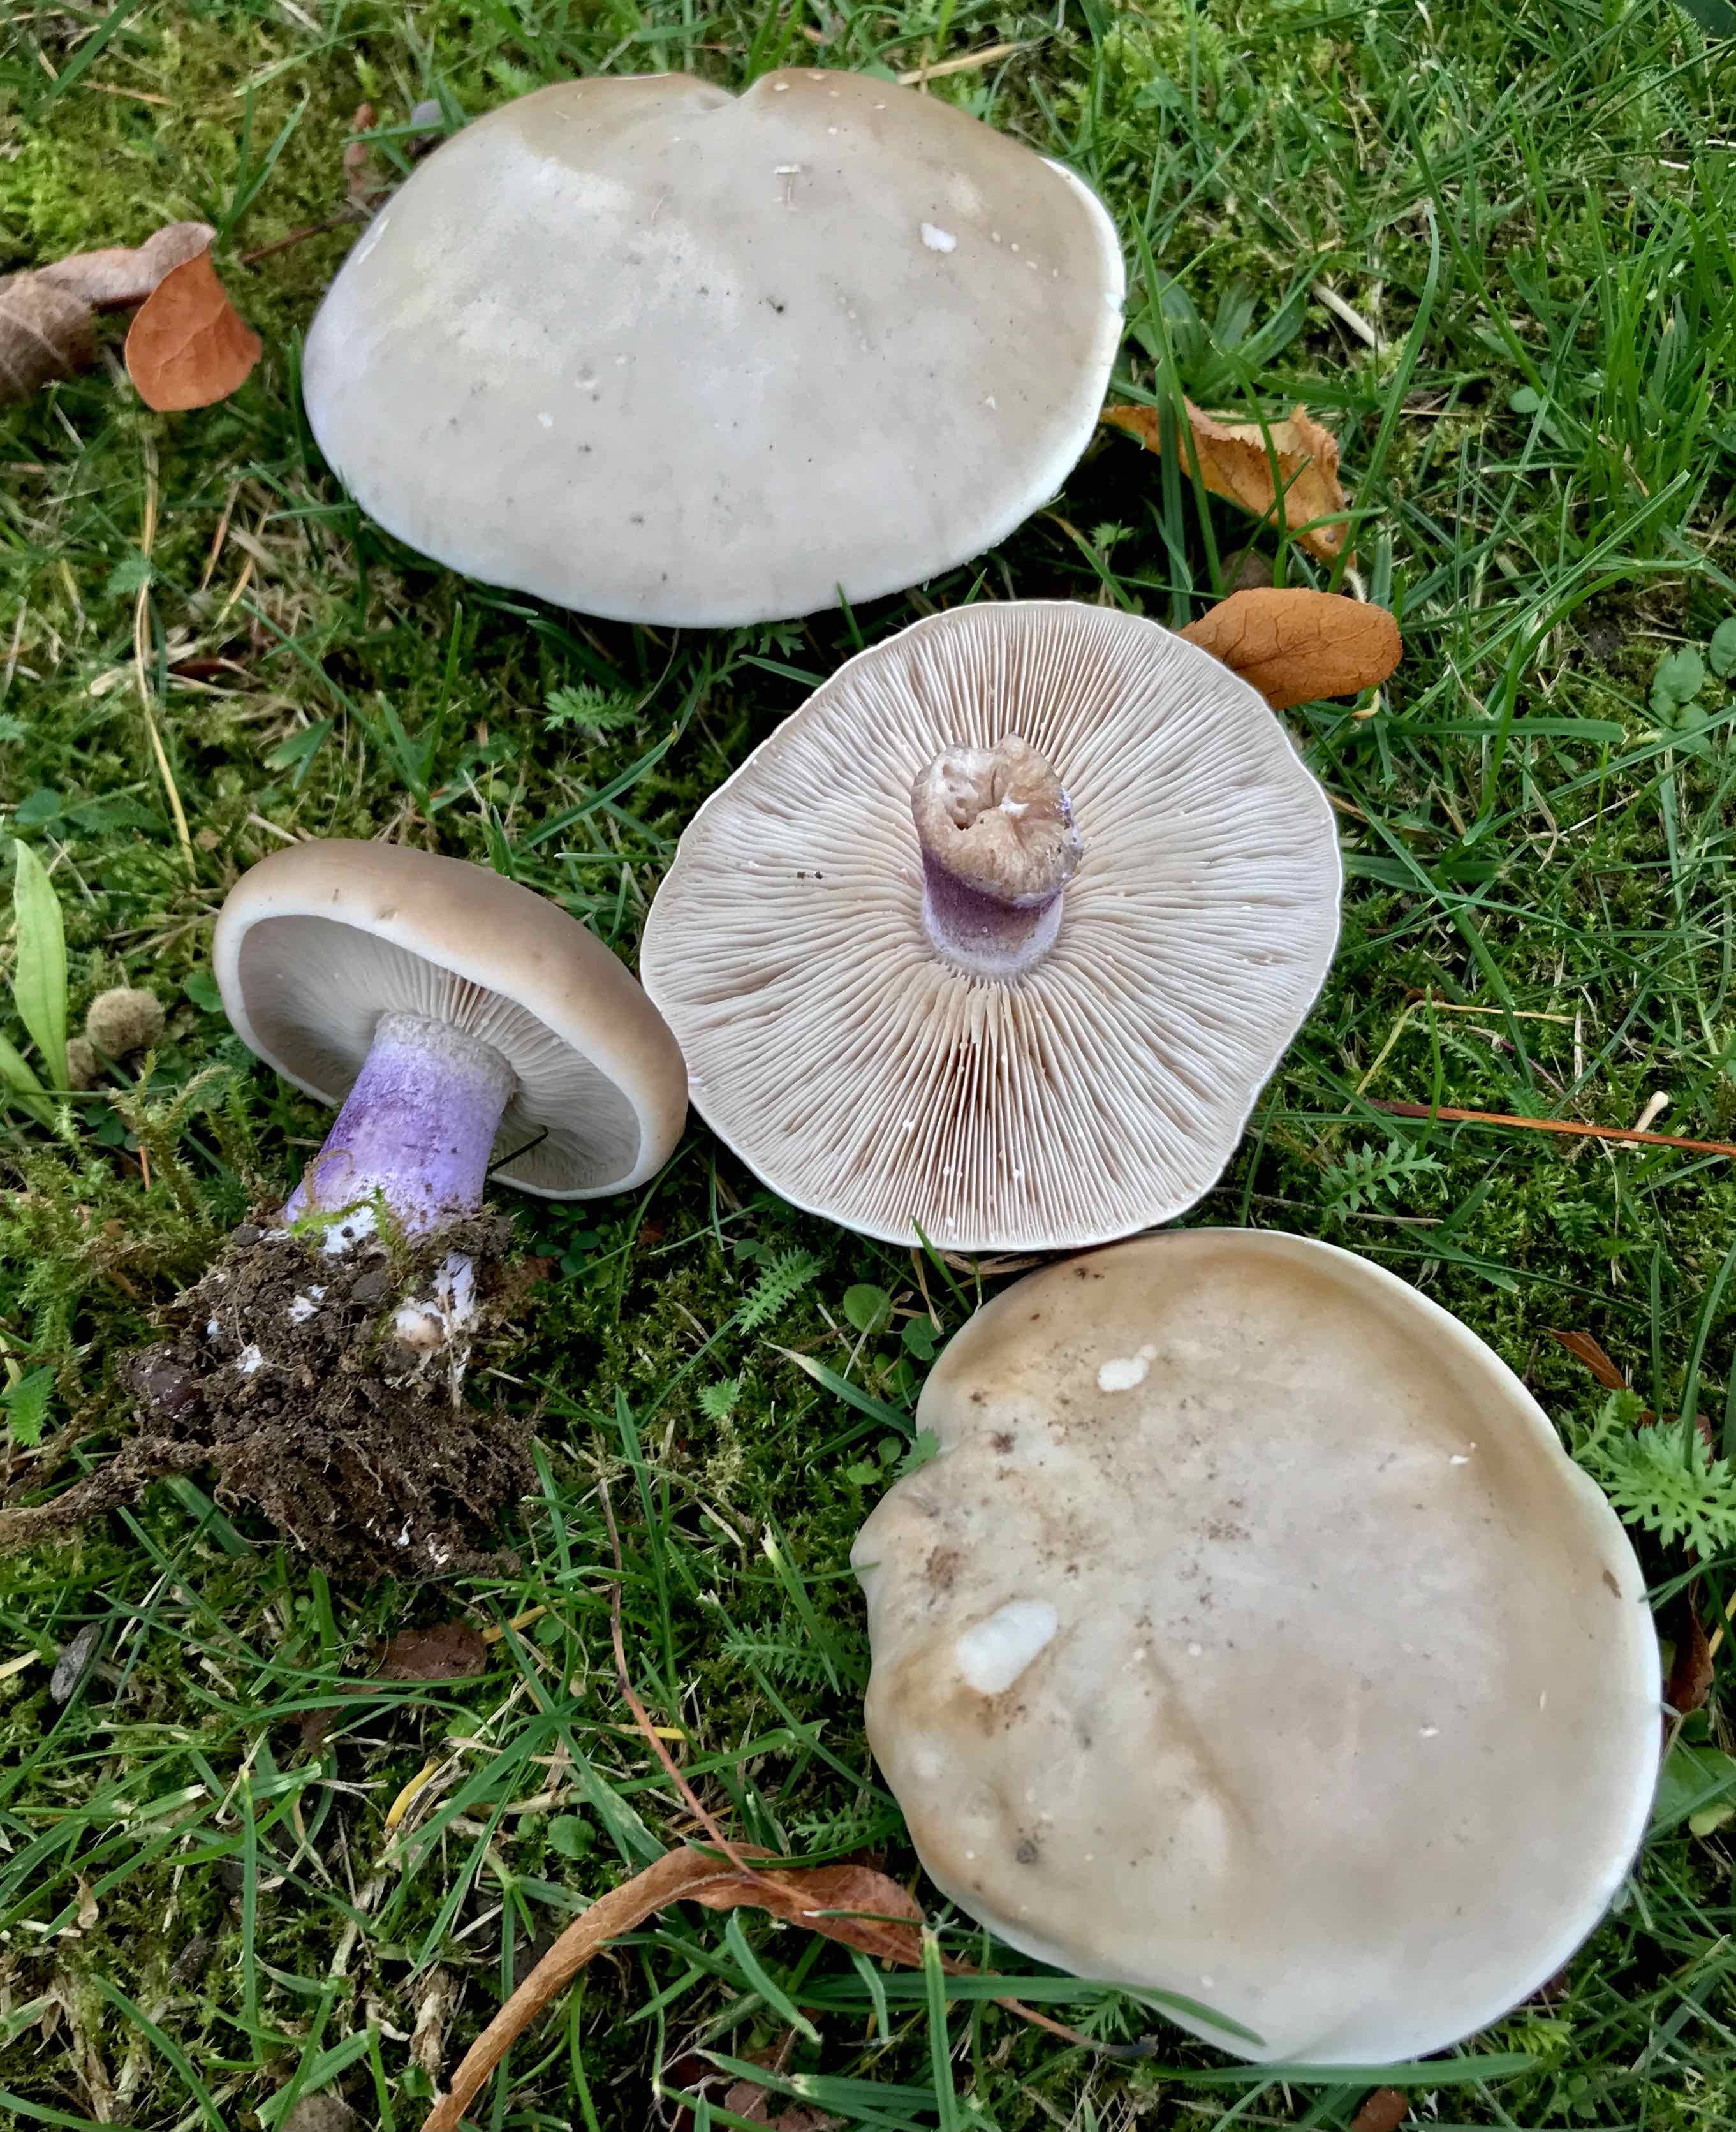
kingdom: Fungi
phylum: Basidiomycota
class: Agaricomycetes
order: Agaricales
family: Tricholomataceae
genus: Lepista
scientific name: Lepista personata
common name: bleg hekseringshat
